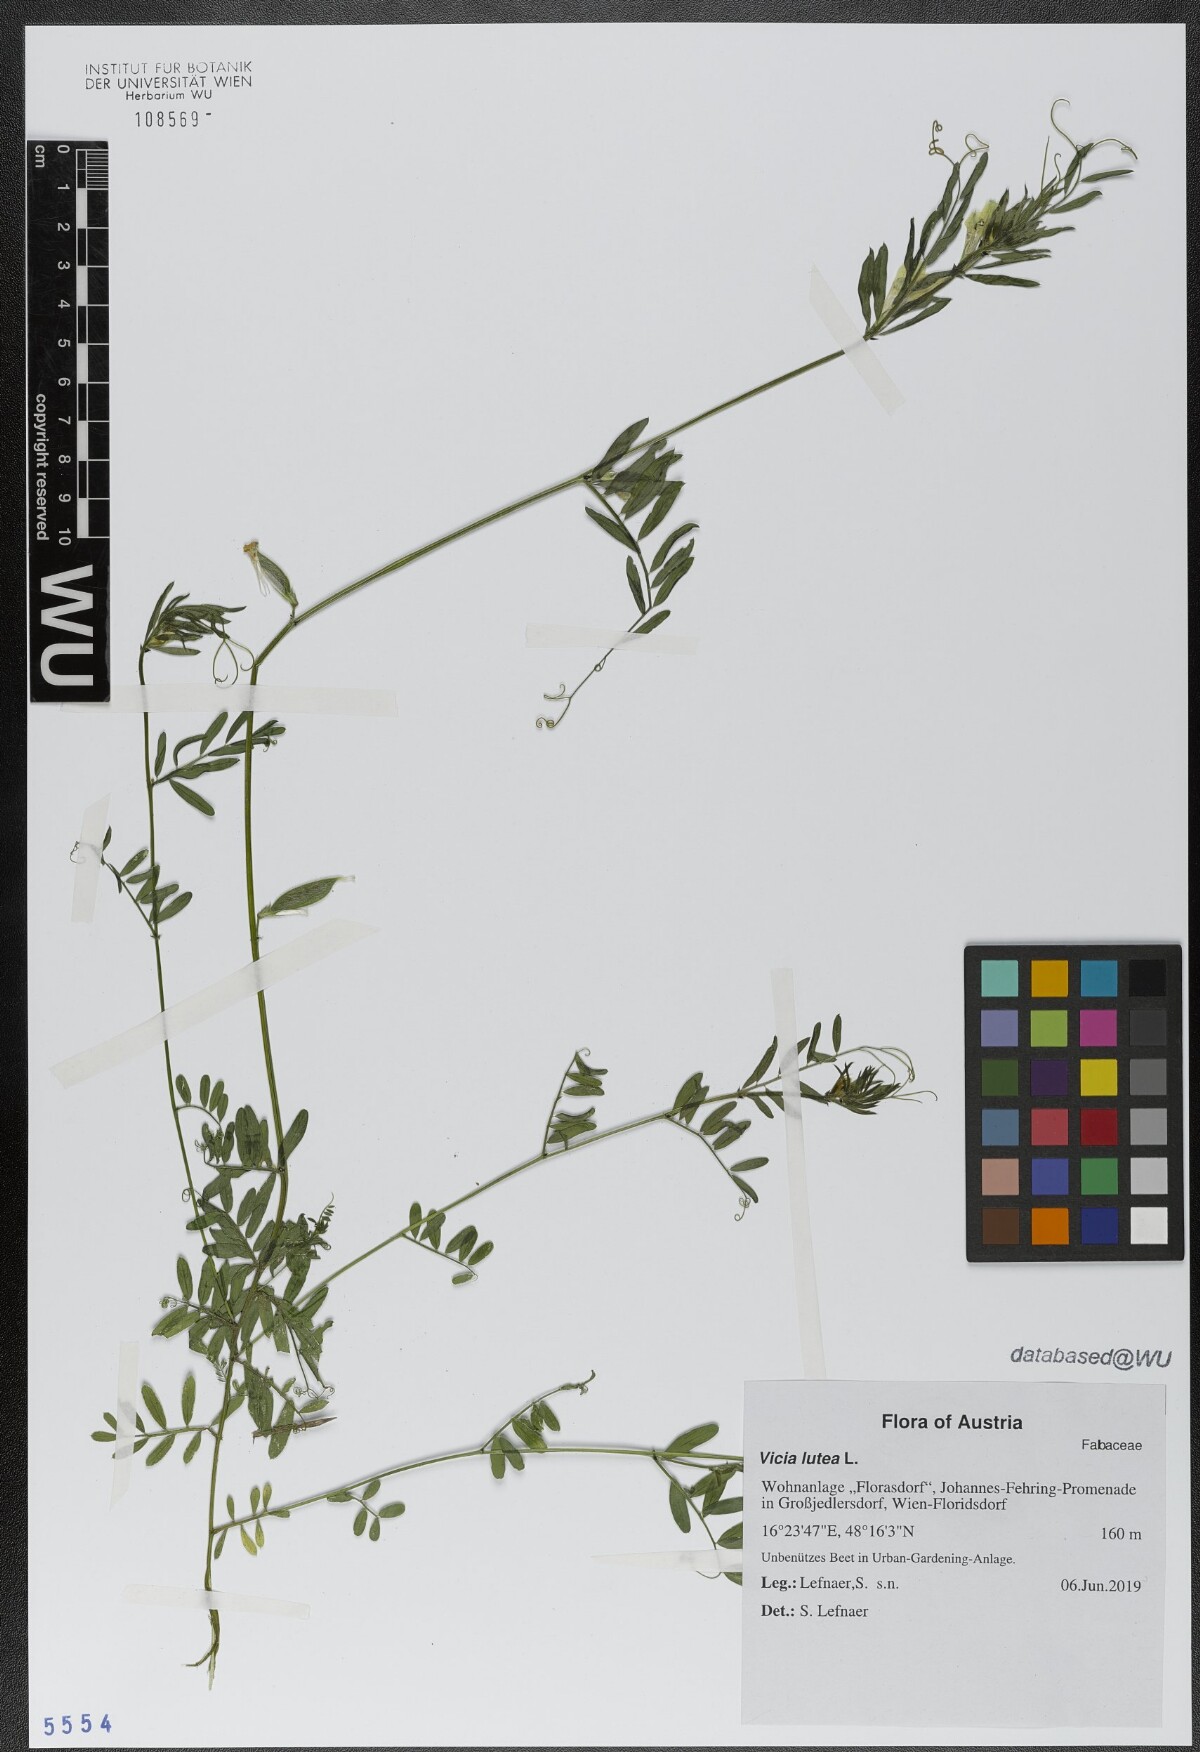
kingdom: Plantae
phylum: Tracheophyta
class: Magnoliopsida
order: Fabales
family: Fabaceae
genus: Vicia
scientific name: Vicia lutea
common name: Smooth yellow vetch
